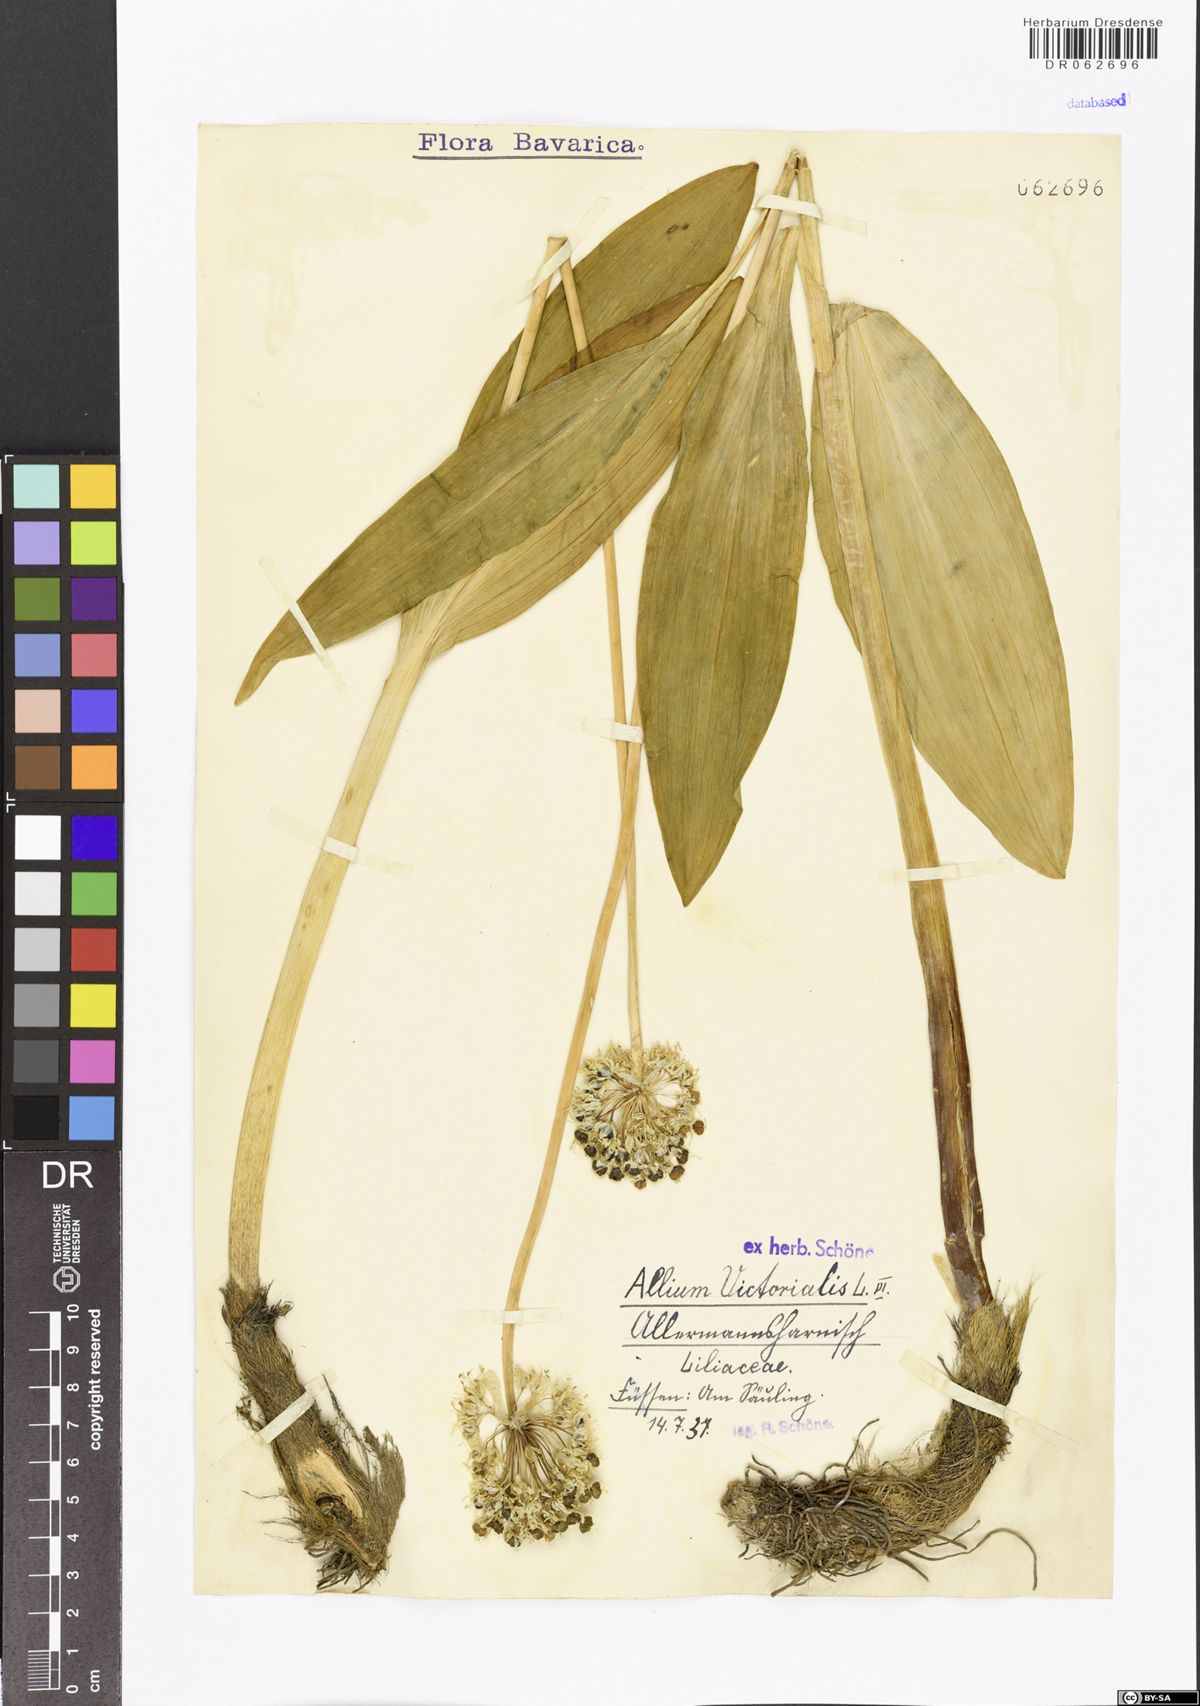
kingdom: Plantae
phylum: Tracheophyta
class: Liliopsida
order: Asparagales
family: Amaryllidaceae
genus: Allium
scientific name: Allium victorialis
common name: Alpine leek
